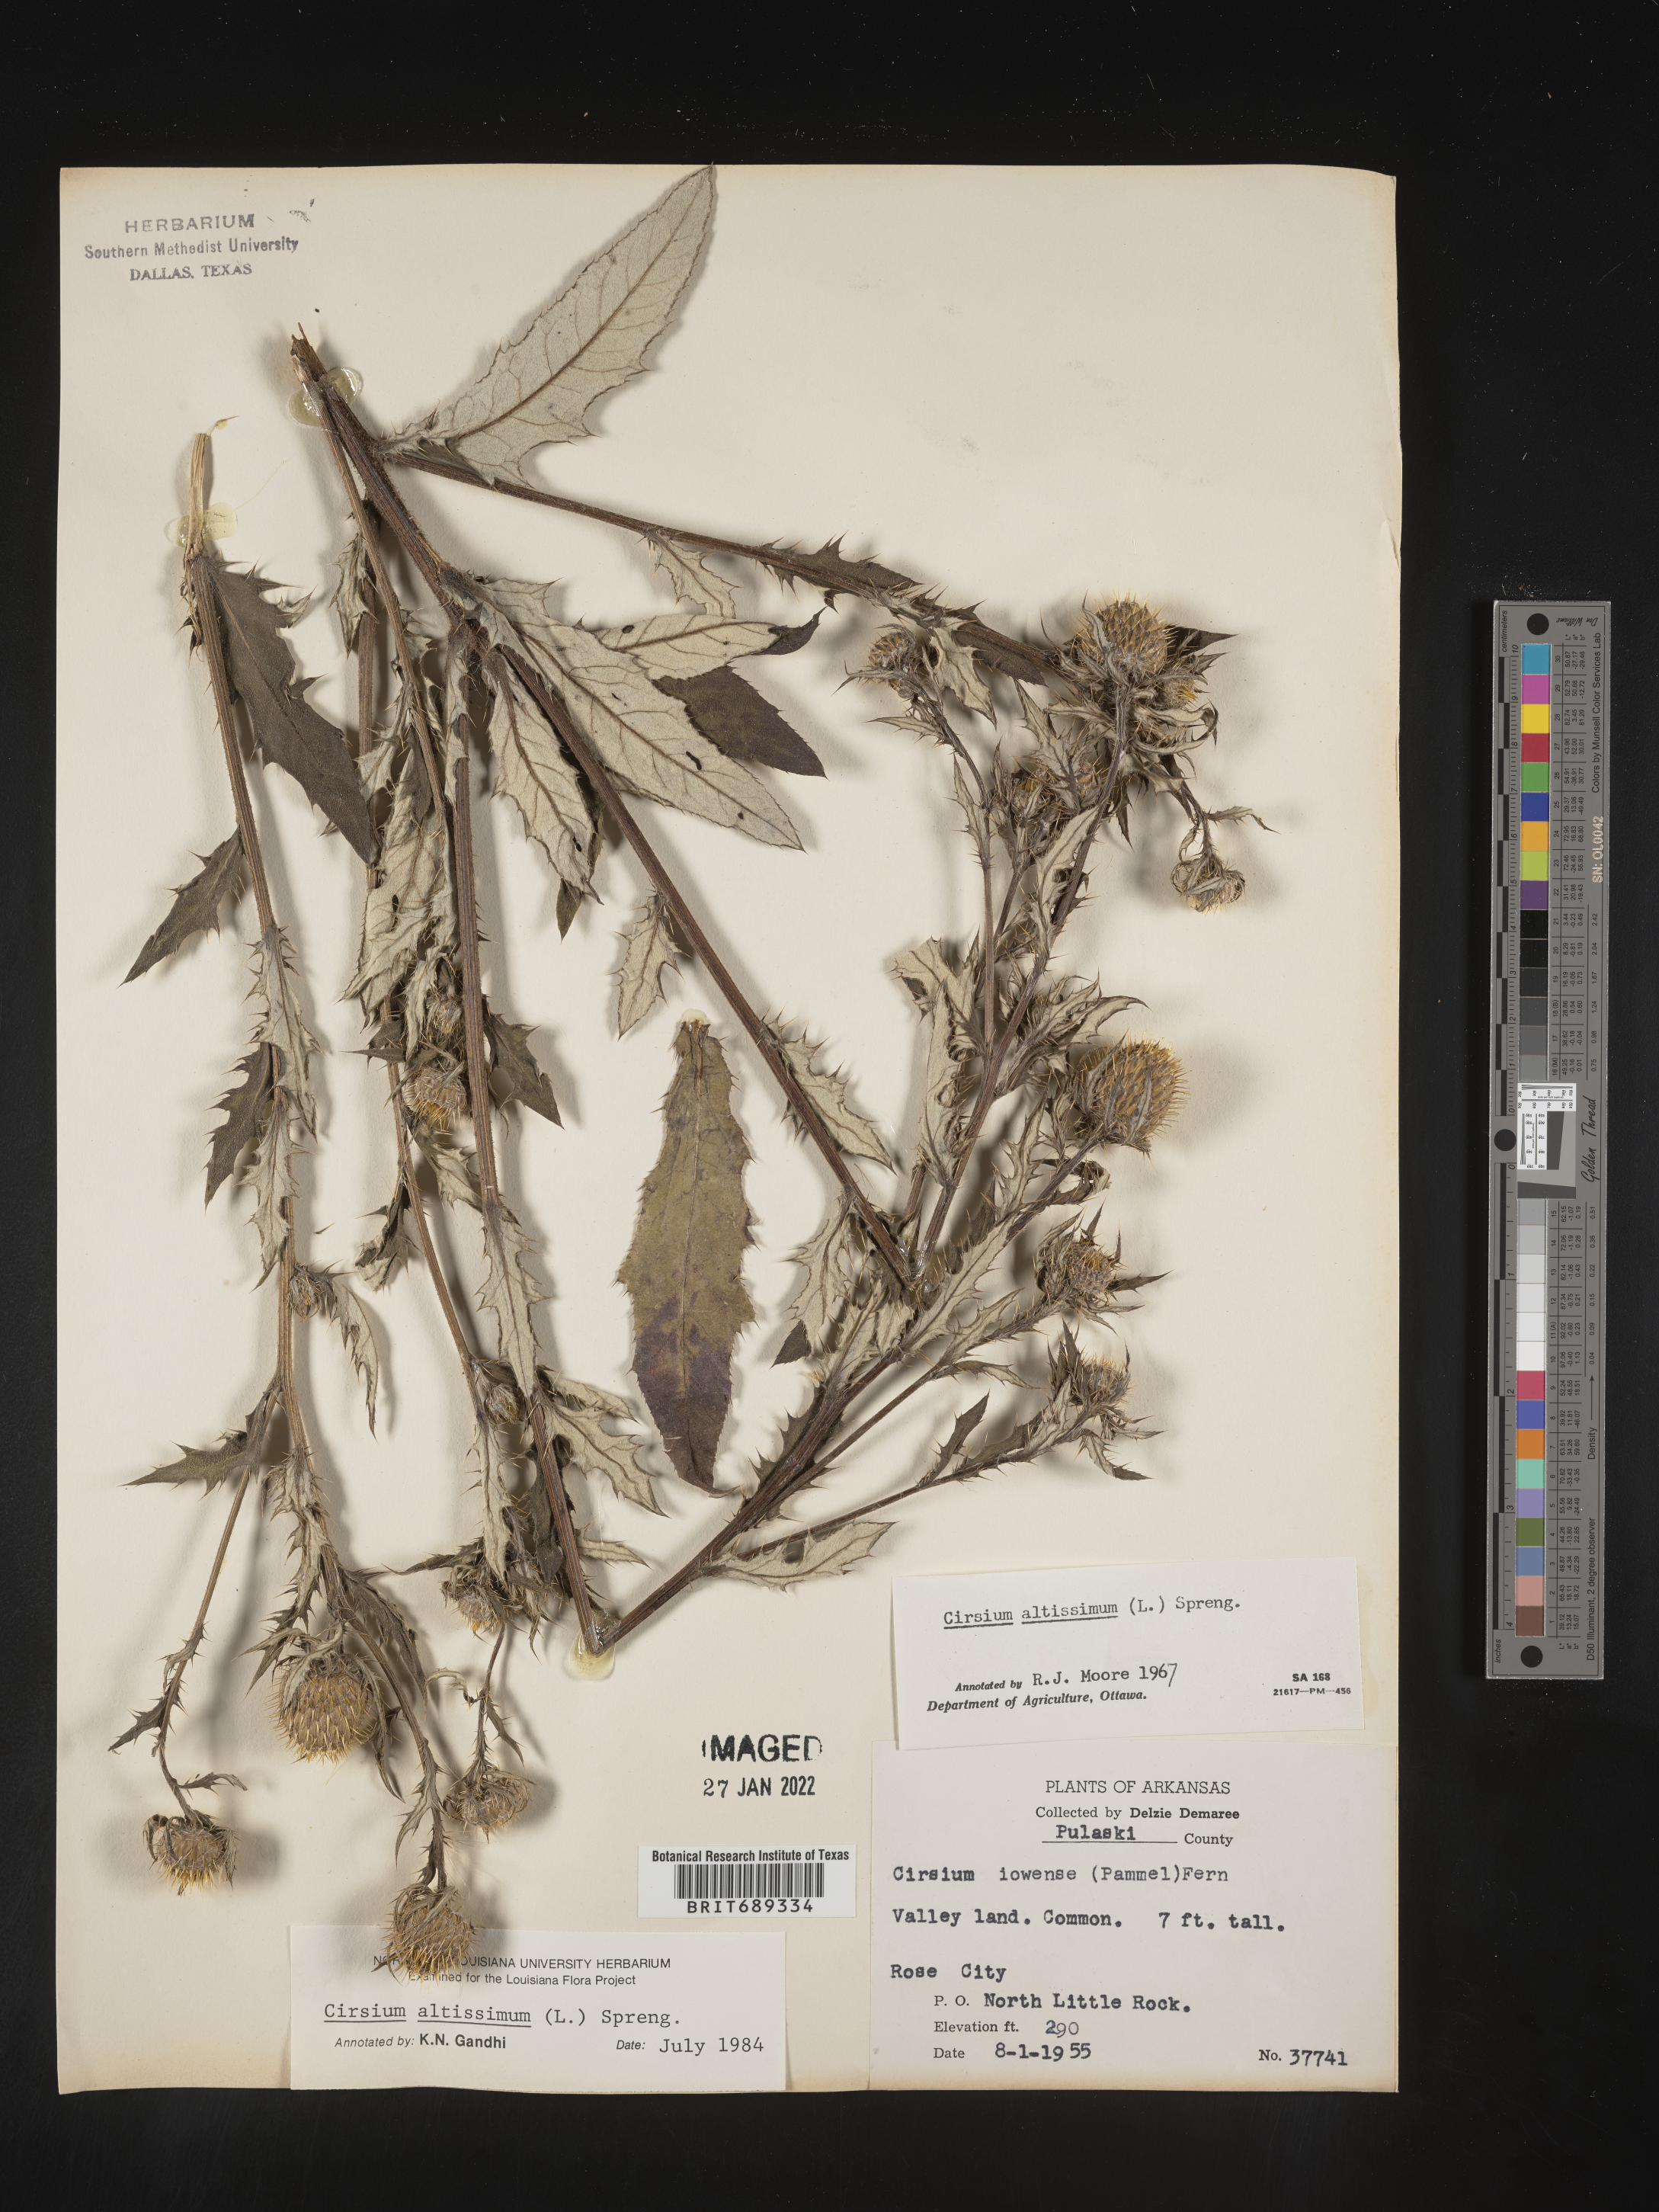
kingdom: Plantae
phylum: Tracheophyta
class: Magnoliopsida
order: Asterales
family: Asteraceae
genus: Cirsium
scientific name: Cirsium altissimum
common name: Roadside thistle
